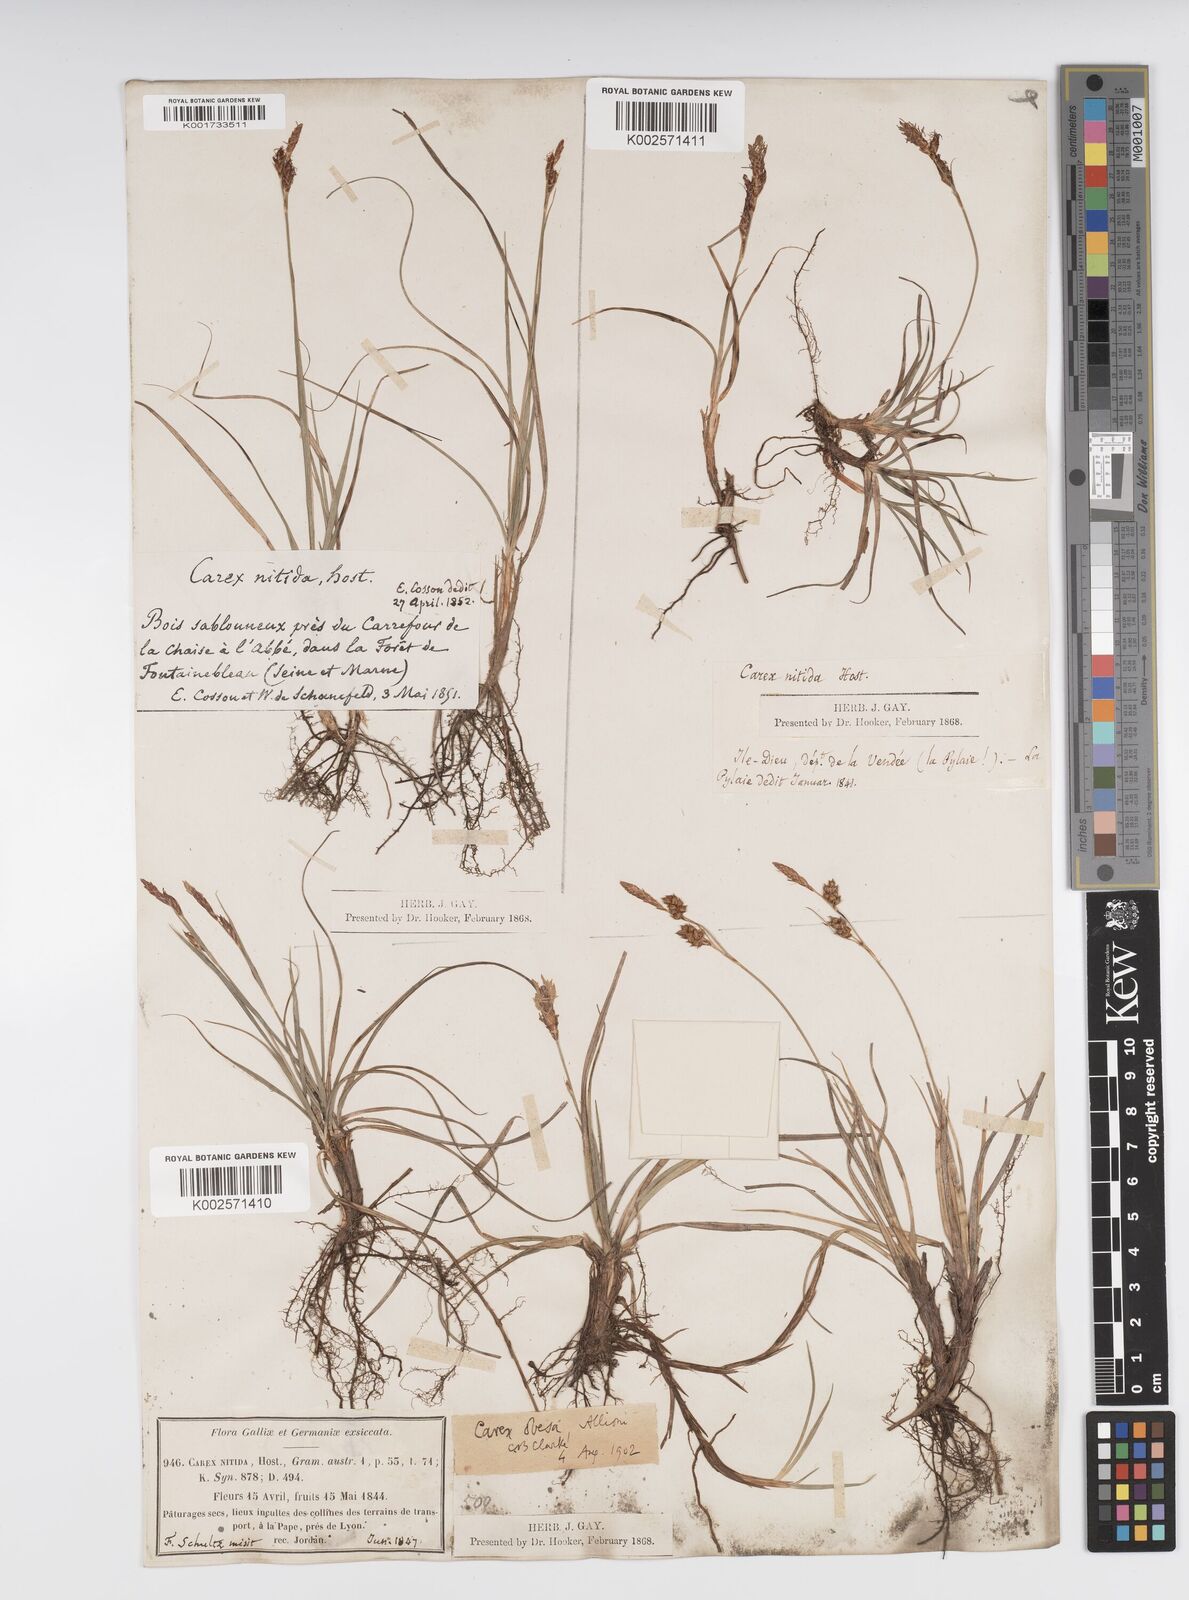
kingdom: Plantae
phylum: Tracheophyta
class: Liliopsida
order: Poales
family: Cyperaceae
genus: Carex
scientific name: Carex liparocarpos
